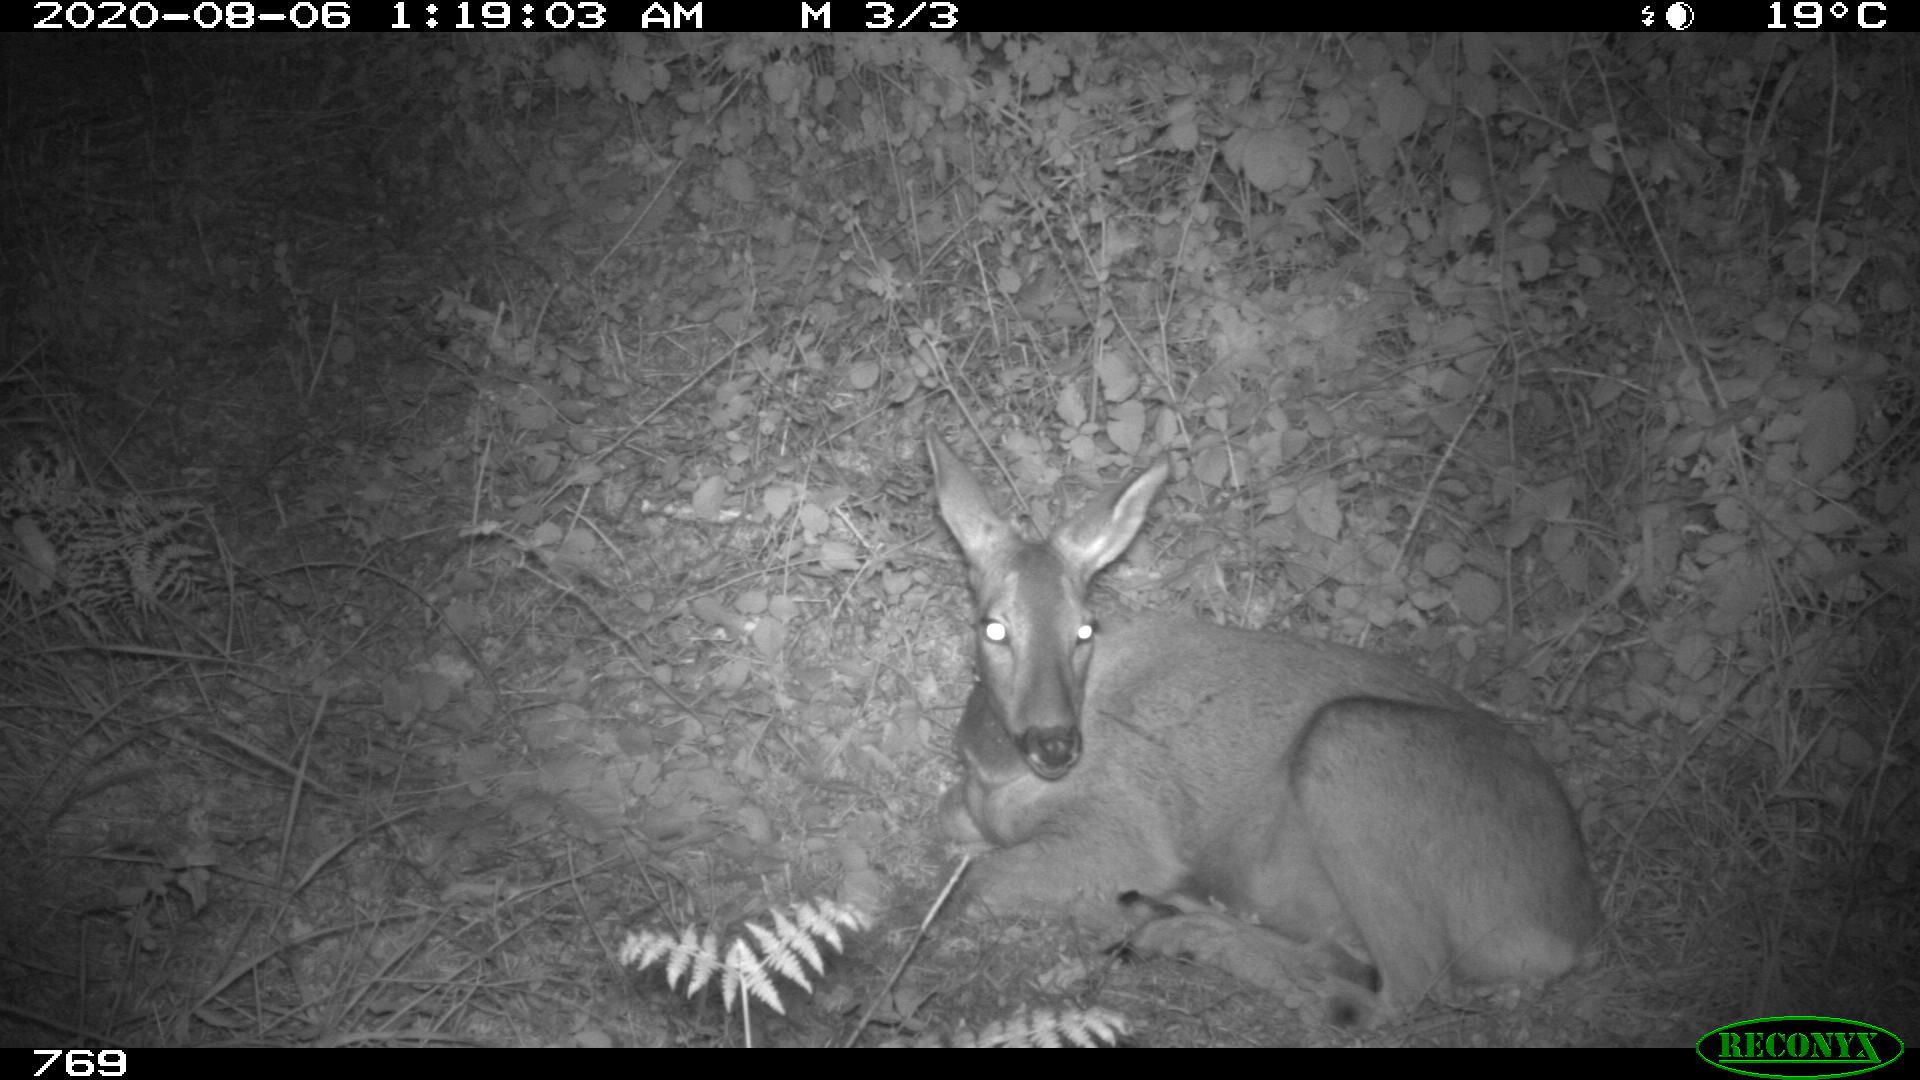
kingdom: Animalia
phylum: Chordata
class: Mammalia
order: Artiodactyla
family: Cervidae
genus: Capreolus
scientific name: Capreolus capreolus
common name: Western roe deer
